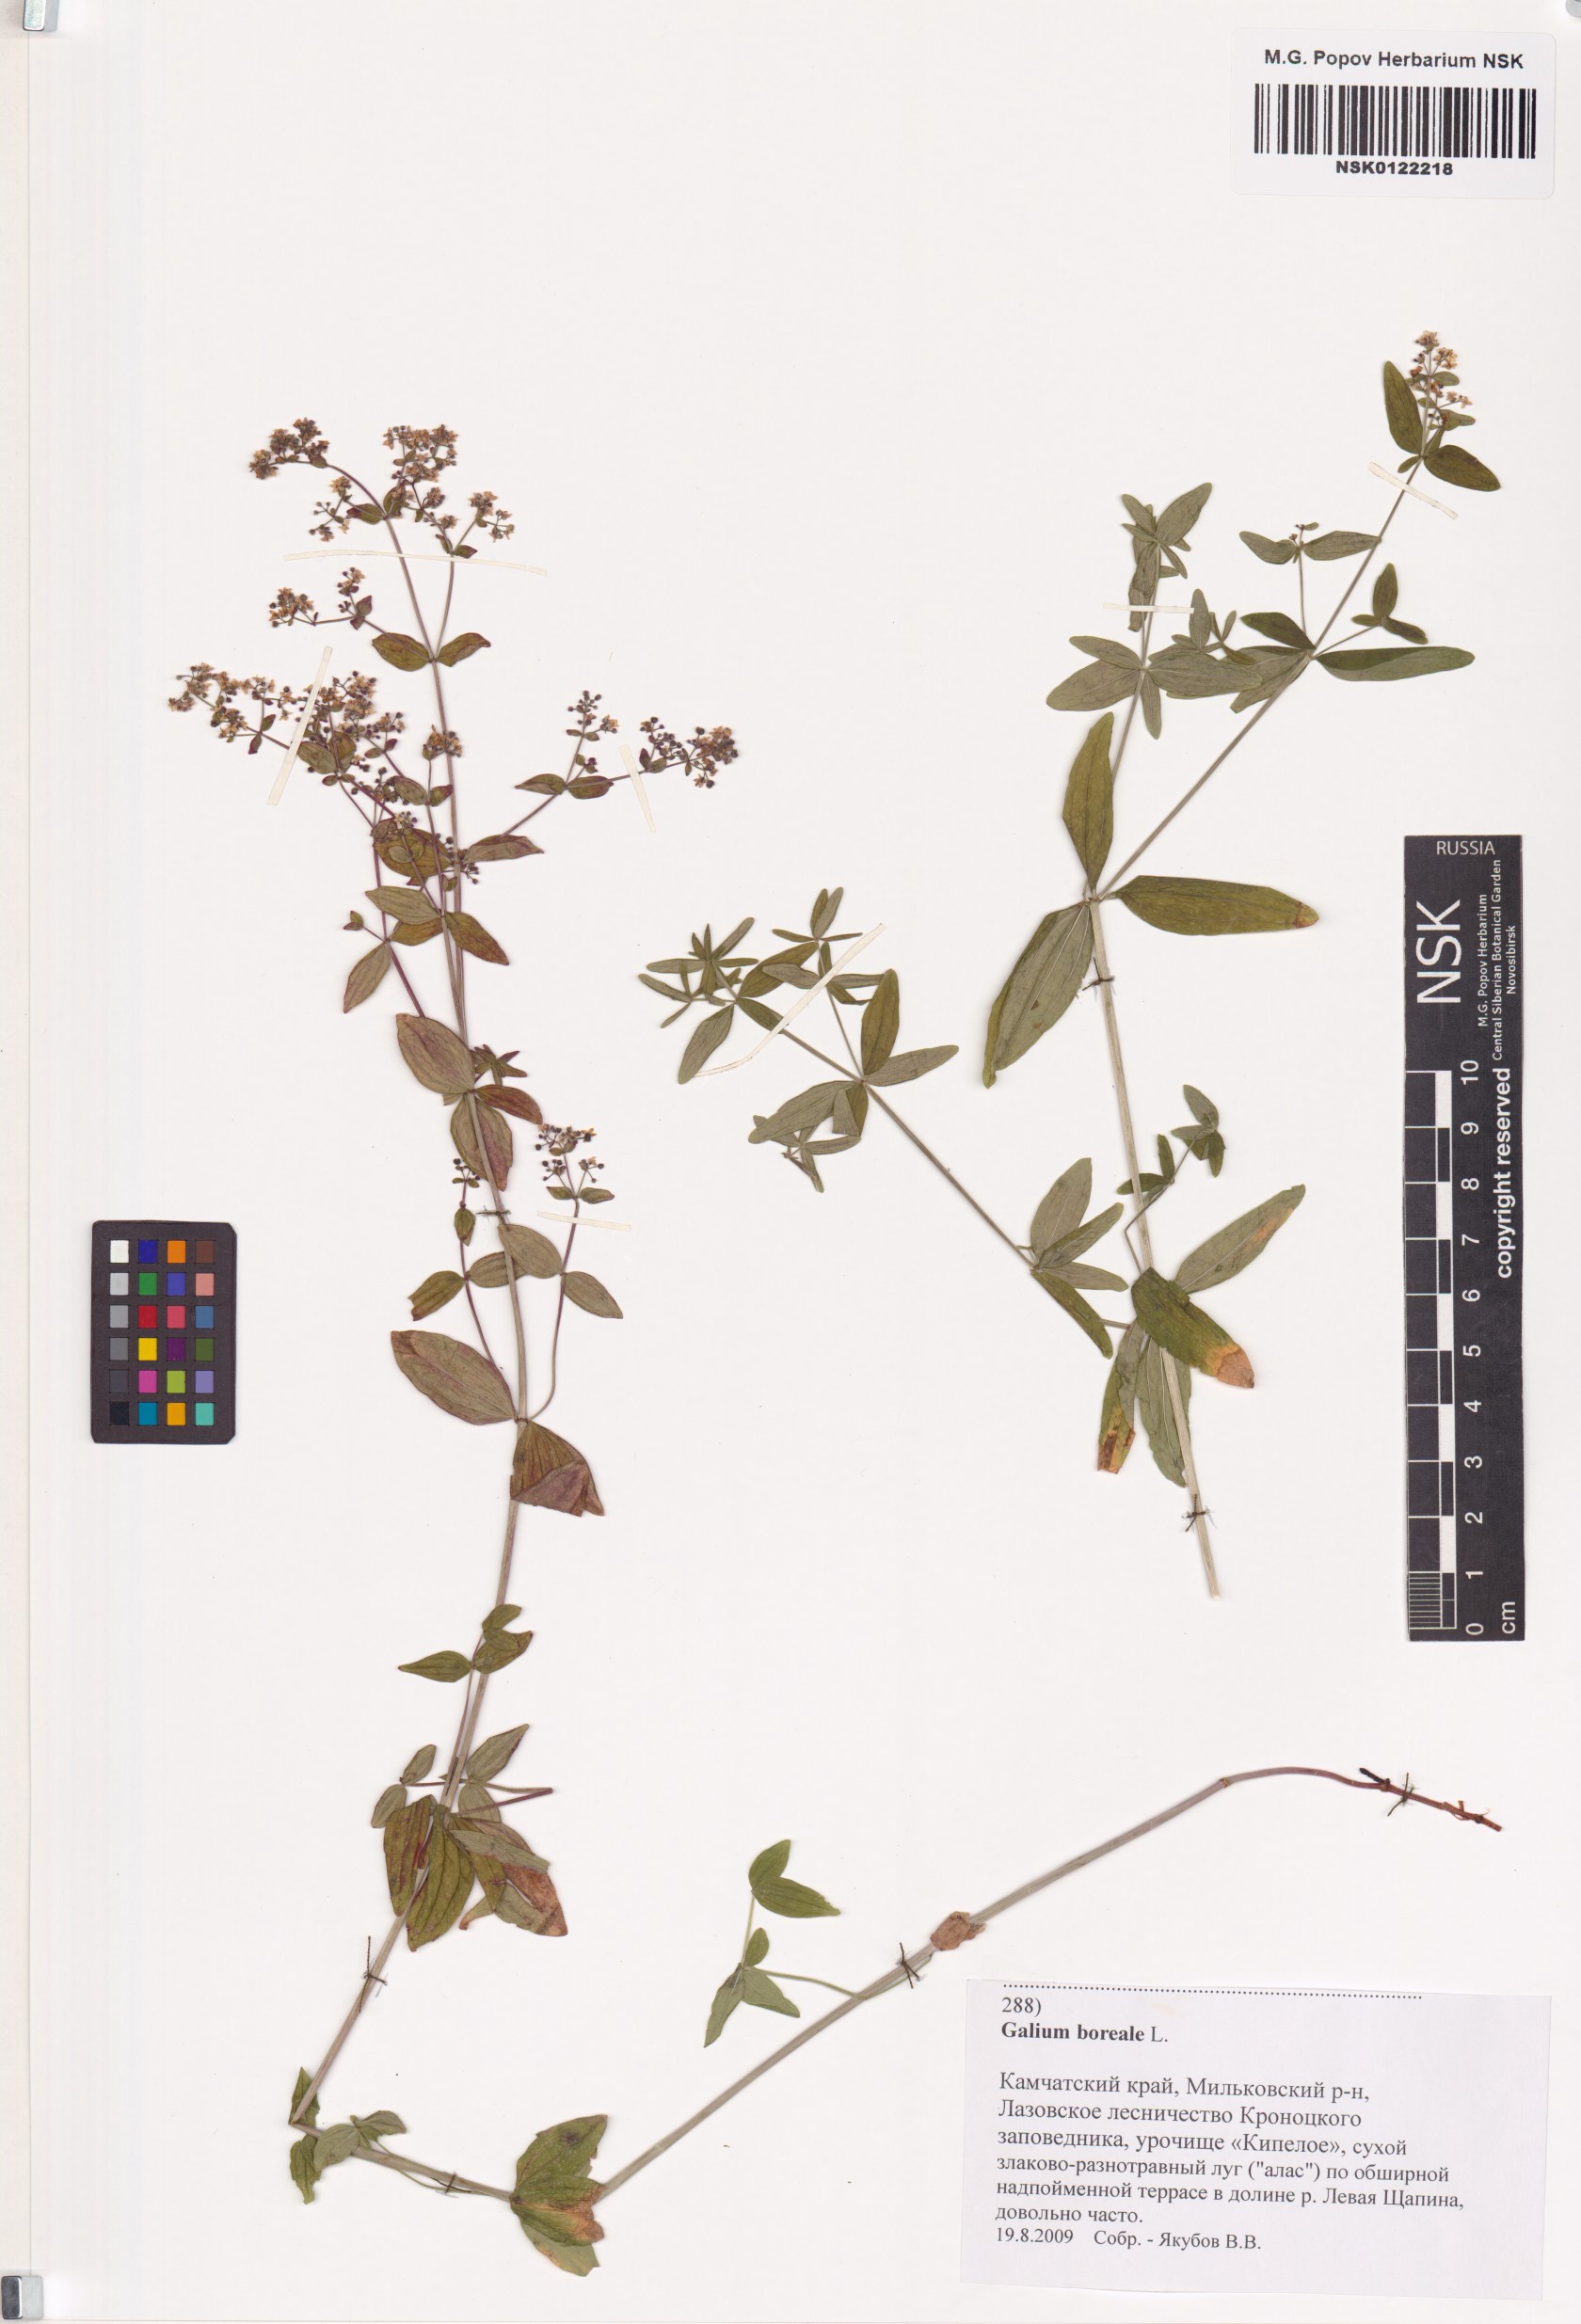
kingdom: Plantae
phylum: Tracheophyta
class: Magnoliopsida
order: Gentianales
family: Rubiaceae
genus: Galium
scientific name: Galium boreale
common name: Northern bedstraw
